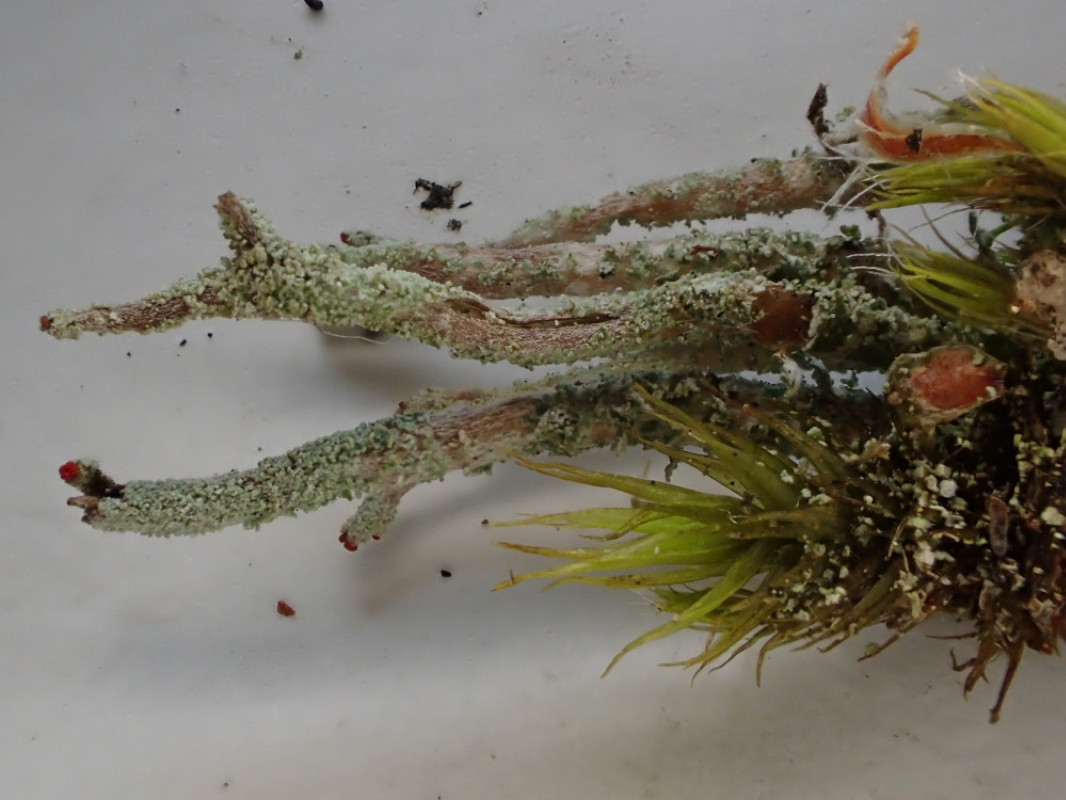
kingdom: Fungi
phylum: Ascomycota
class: Lecanoromycetes
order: Lecanorales
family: Cladoniaceae
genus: Cladonia
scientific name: Cladonia floerkeana
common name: lakrød bægerlav
